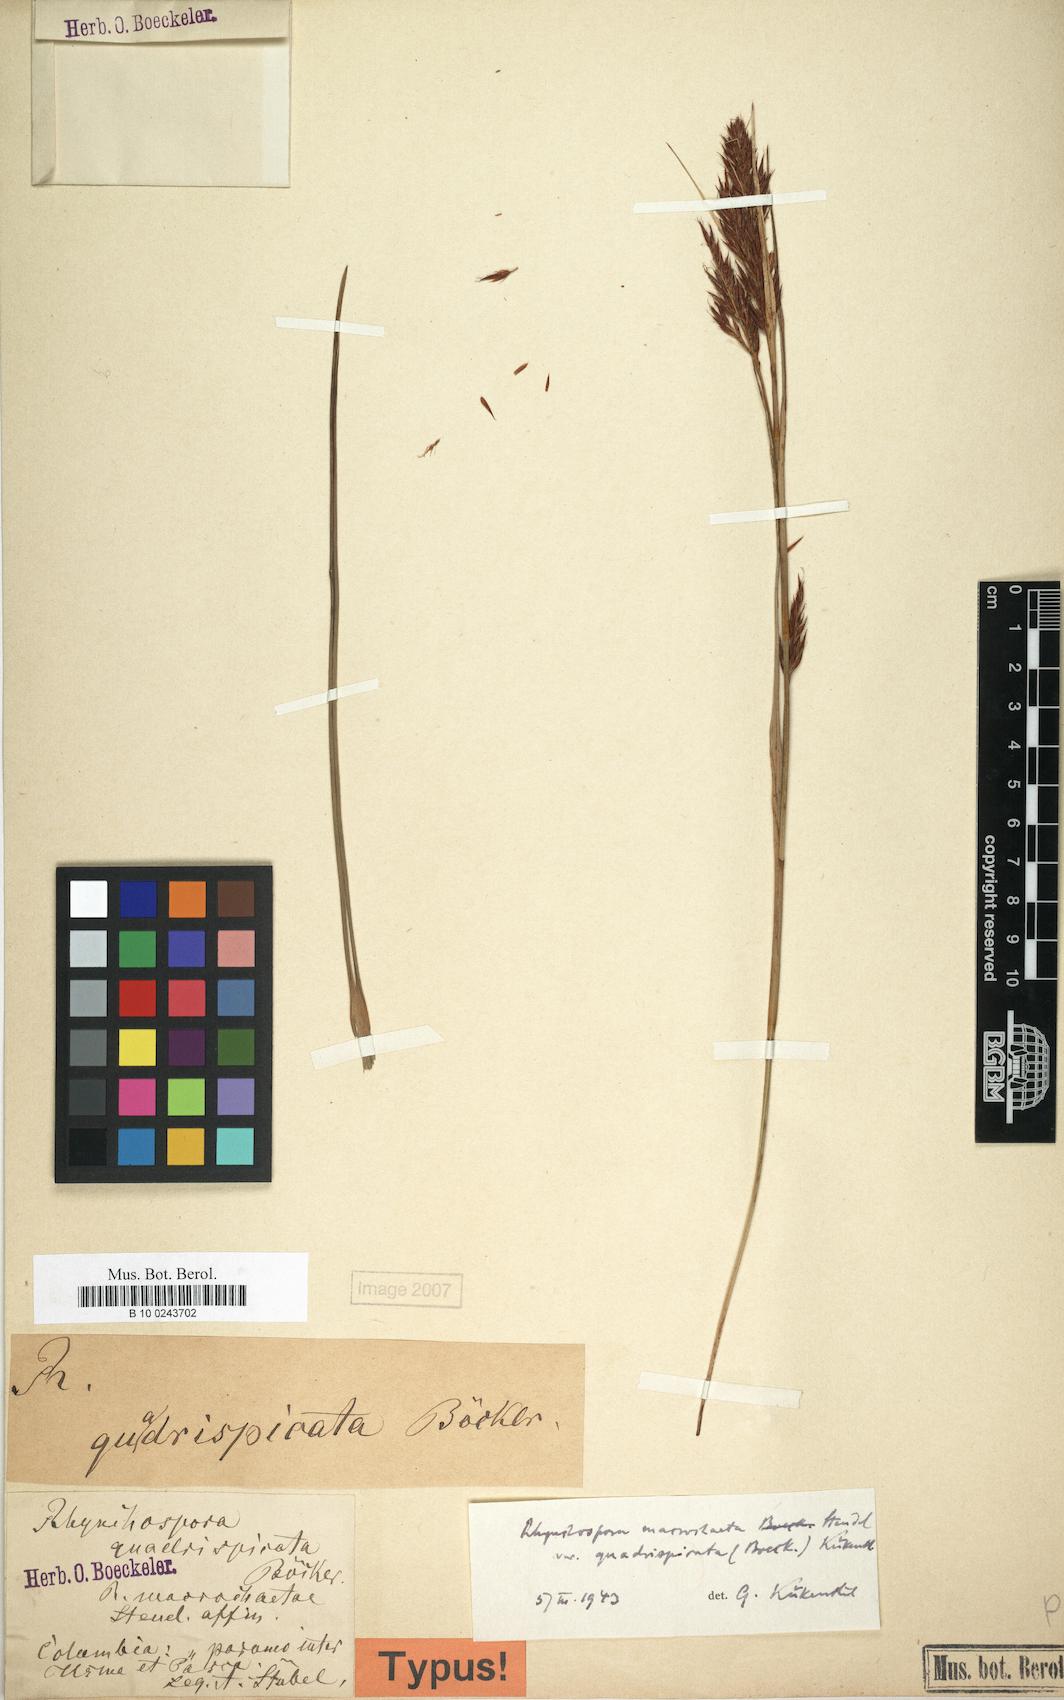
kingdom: Plantae
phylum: Tracheophyta
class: Liliopsida
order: Poales
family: Cyperaceae
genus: Rhynchospora
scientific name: Rhynchospora ruiziana
